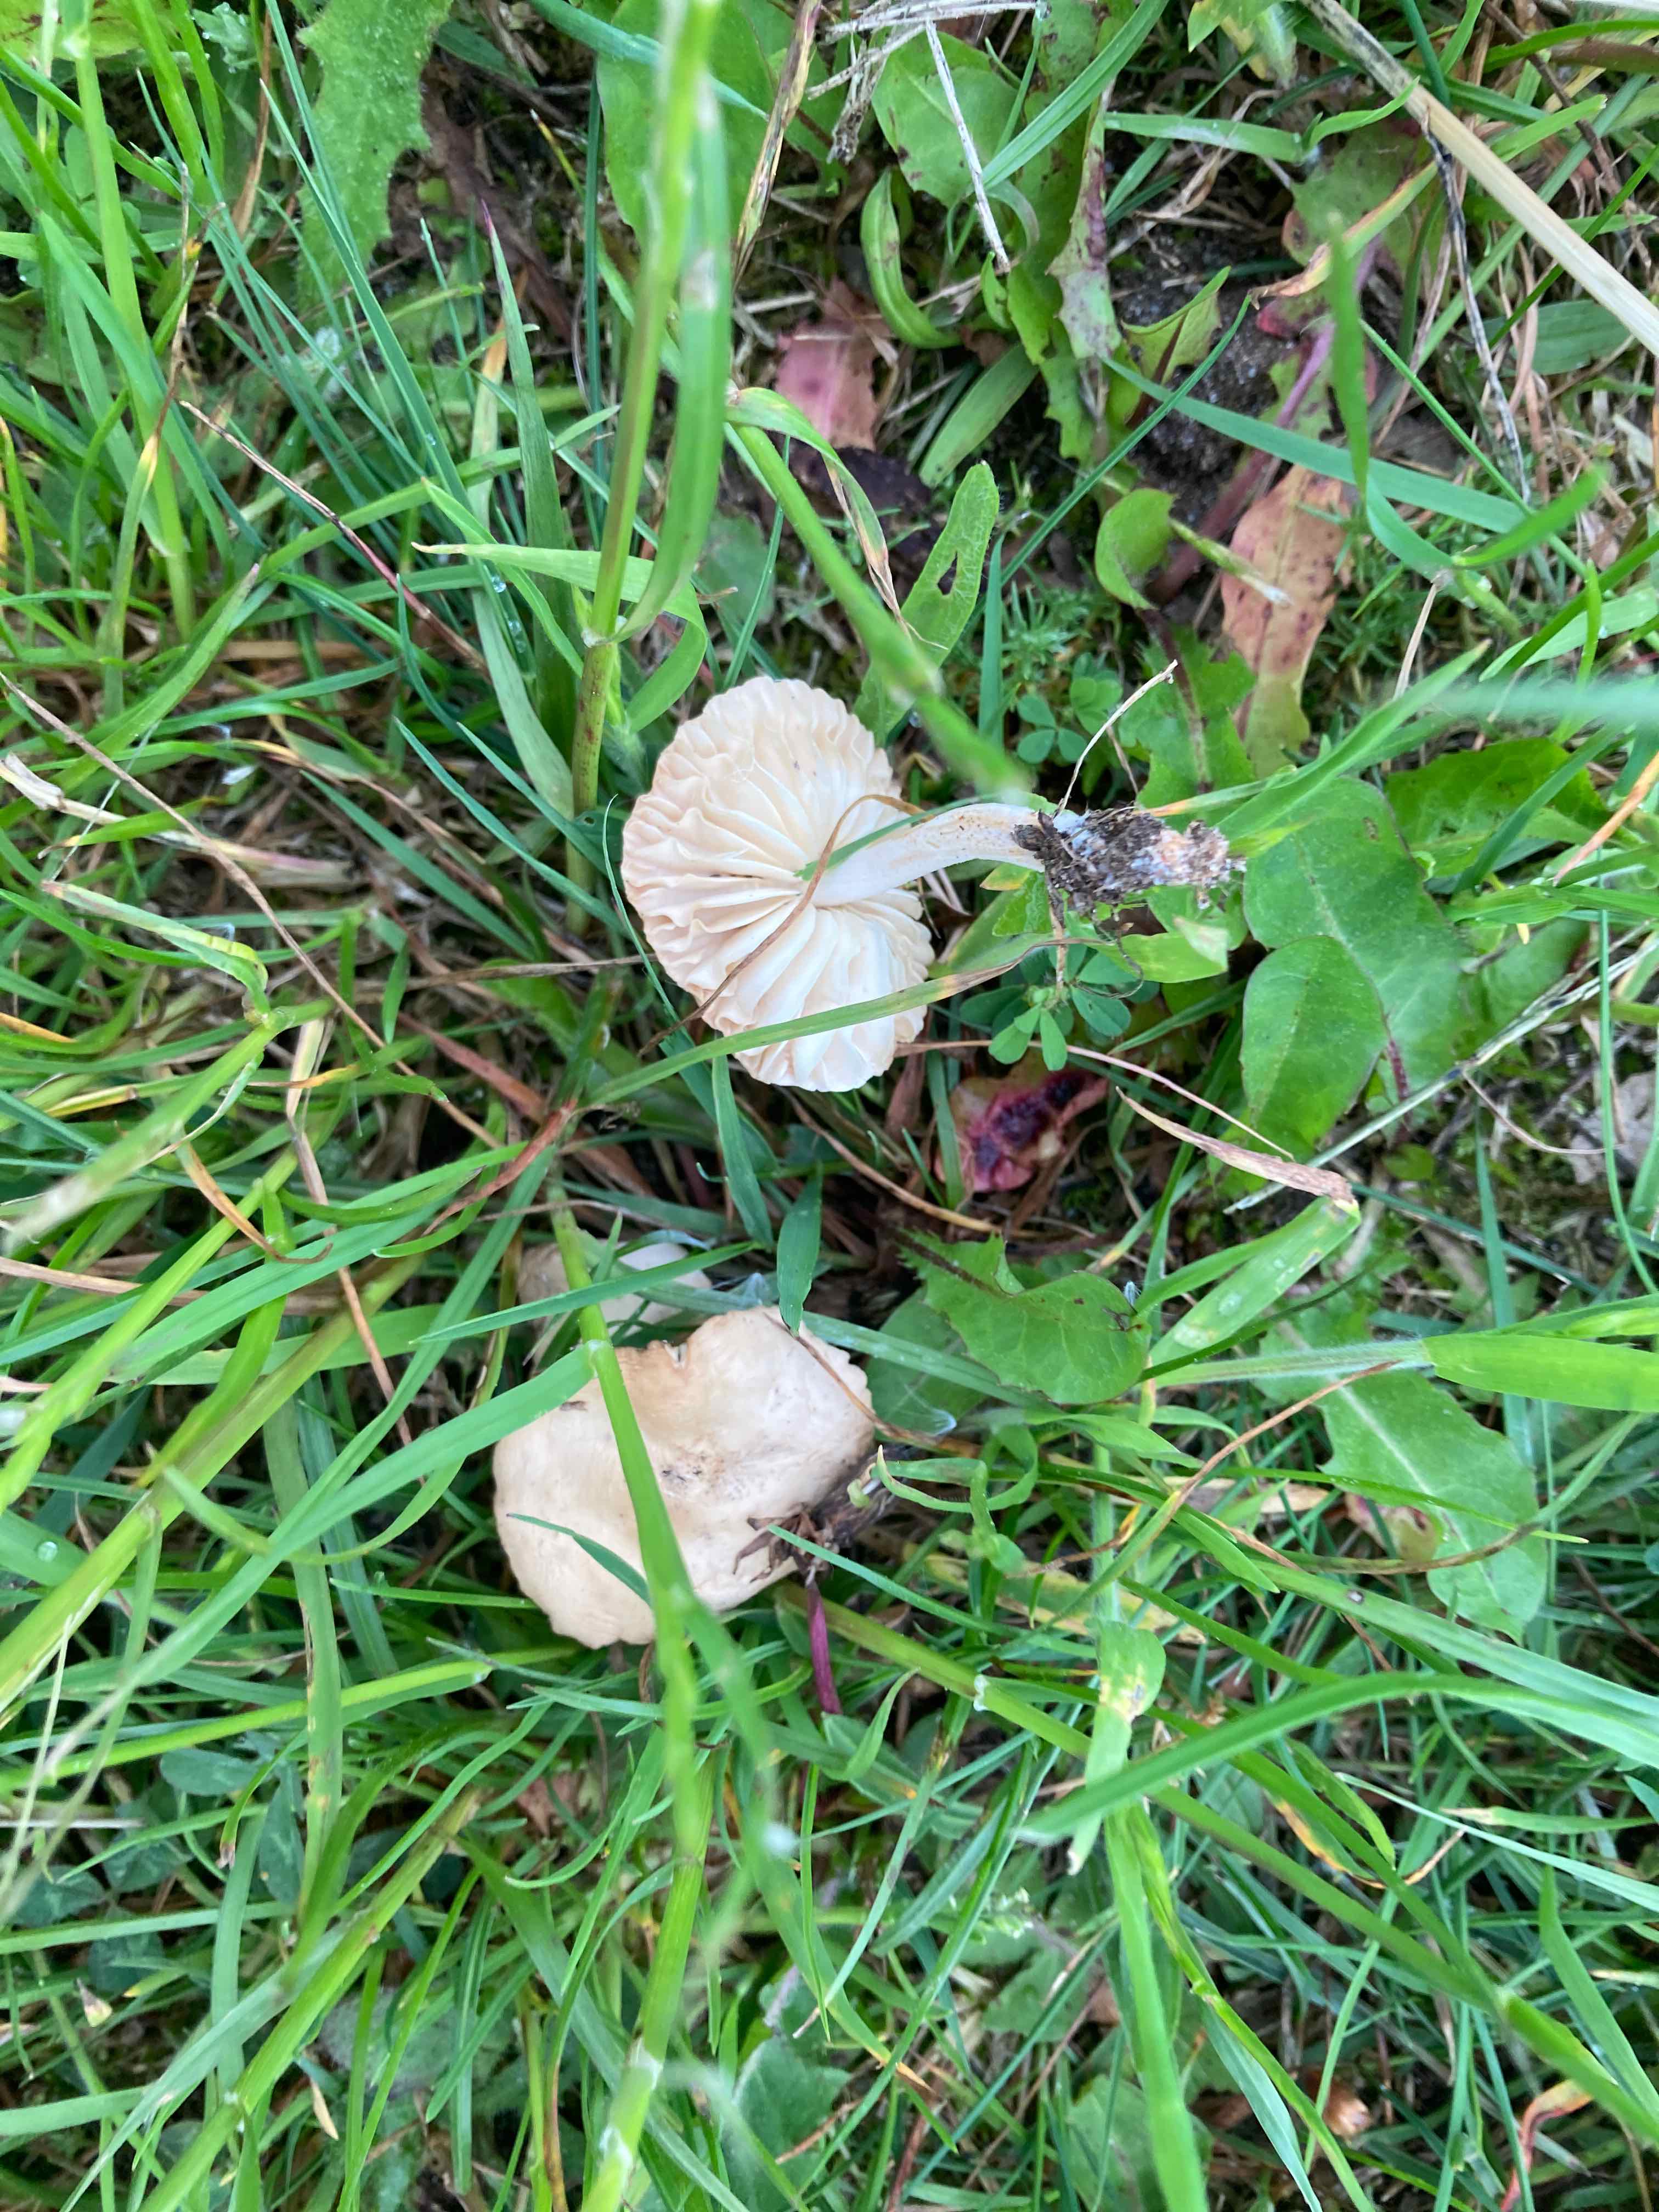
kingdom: Fungi
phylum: Basidiomycota
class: Agaricomycetes
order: Agaricales
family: Marasmiaceae
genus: Marasmius
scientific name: Marasmius oreades
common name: elledans-bruskhat
